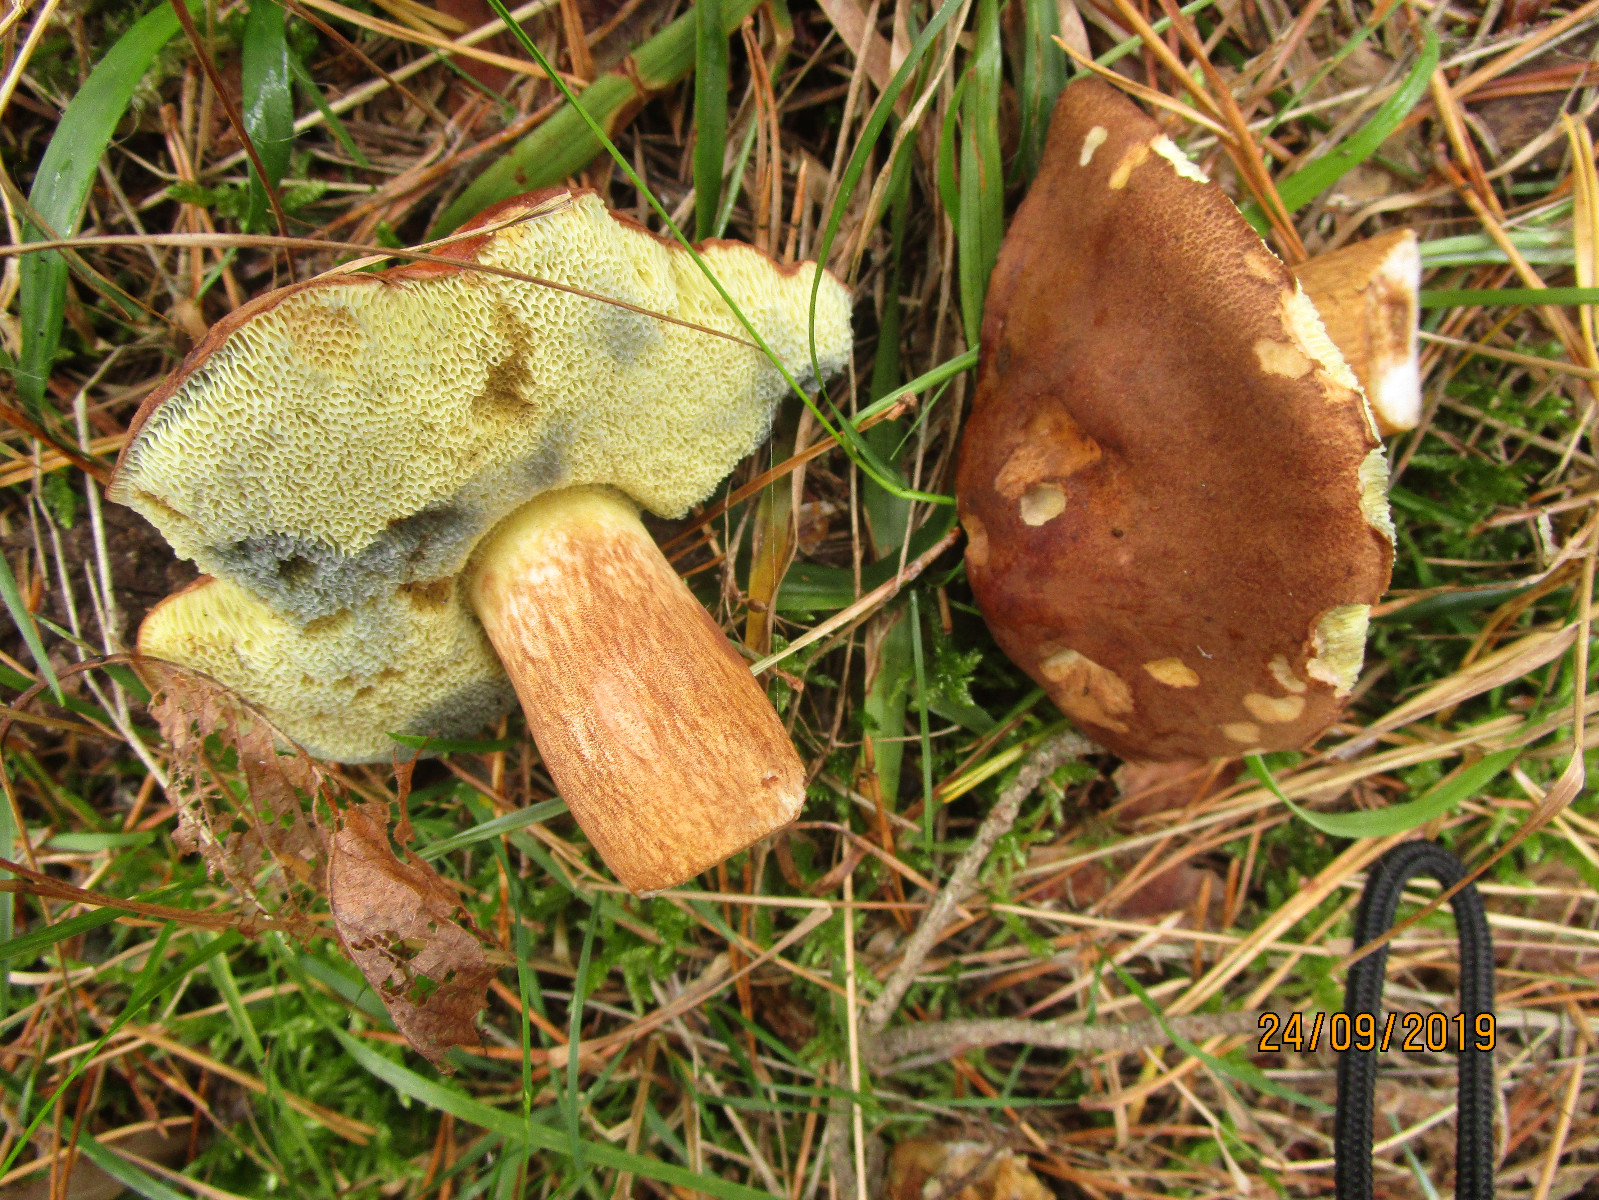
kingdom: Fungi
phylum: Basidiomycota
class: Agaricomycetes
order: Boletales
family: Boletaceae
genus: Imleria
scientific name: Imleria badia
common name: brunstokket rørhat
